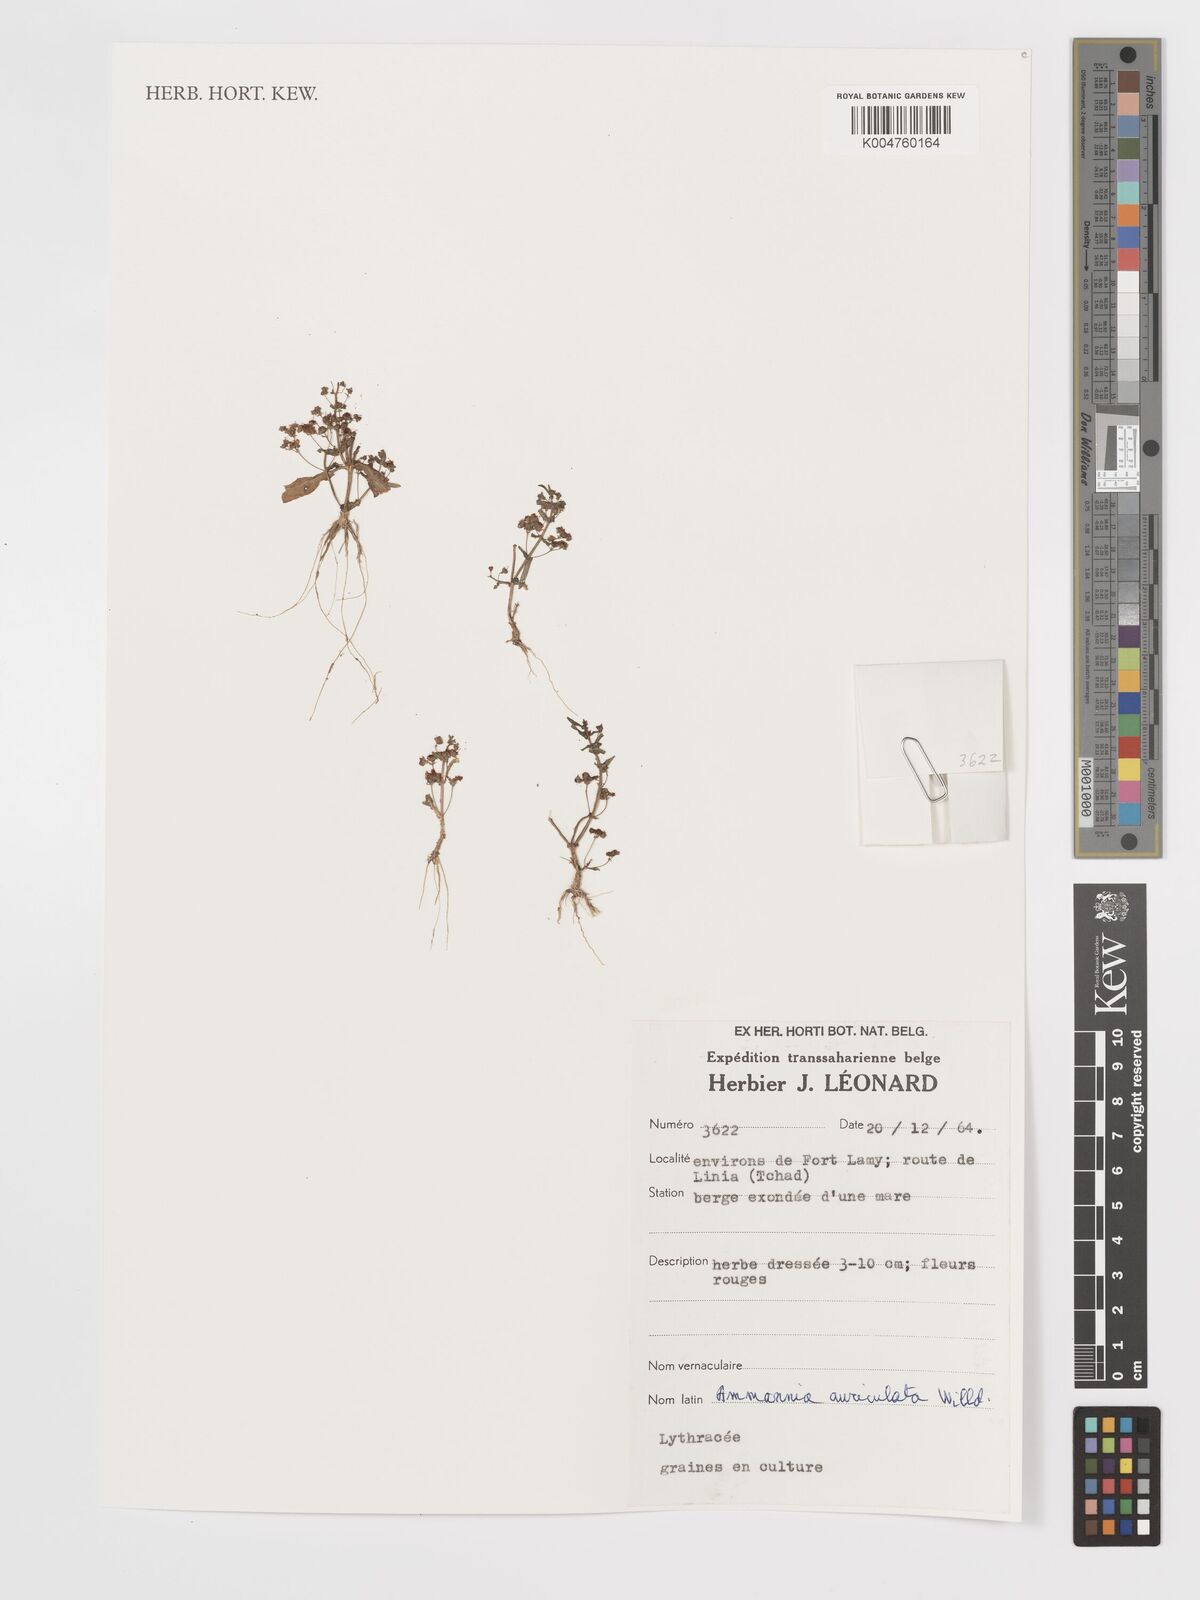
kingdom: Plantae
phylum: Tracheophyta
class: Magnoliopsida
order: Myrtales
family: Lythraceae
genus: Ammannia
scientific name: Ammannia auriculata
